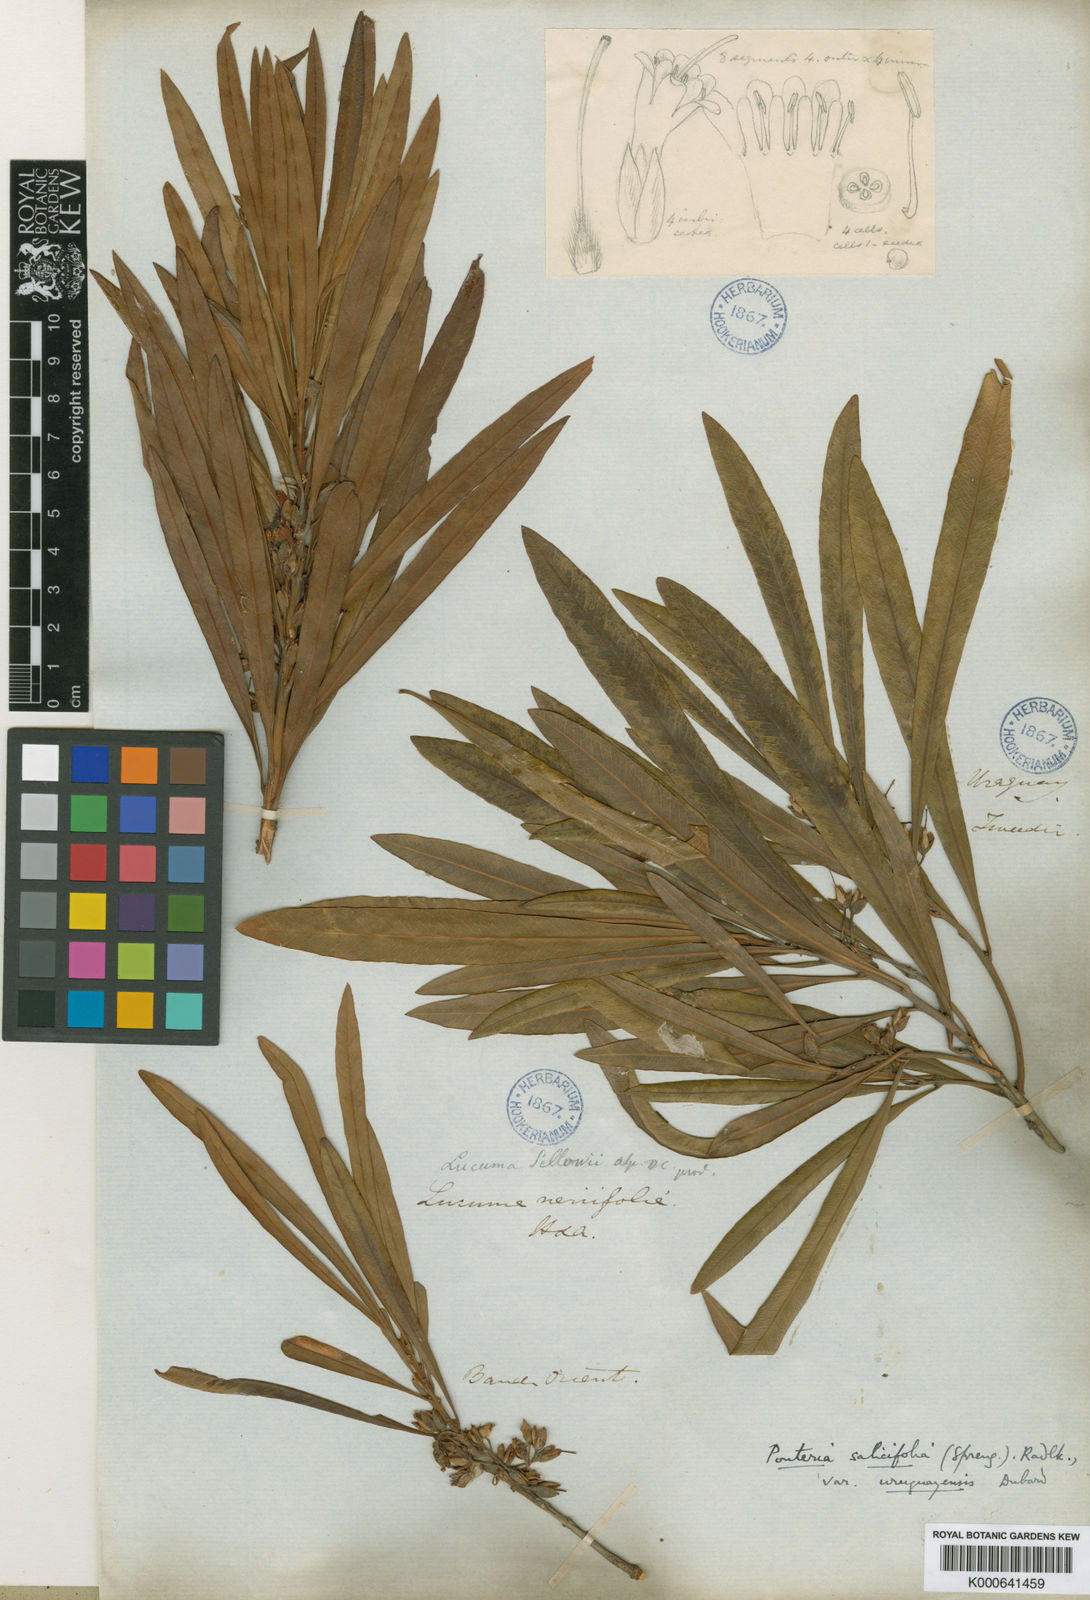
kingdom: Plantae
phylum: Tracheophyta
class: Magnoliopsida
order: Ericales
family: Sapotaceae
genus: Pouteria
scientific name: Pouteria salicifolia
